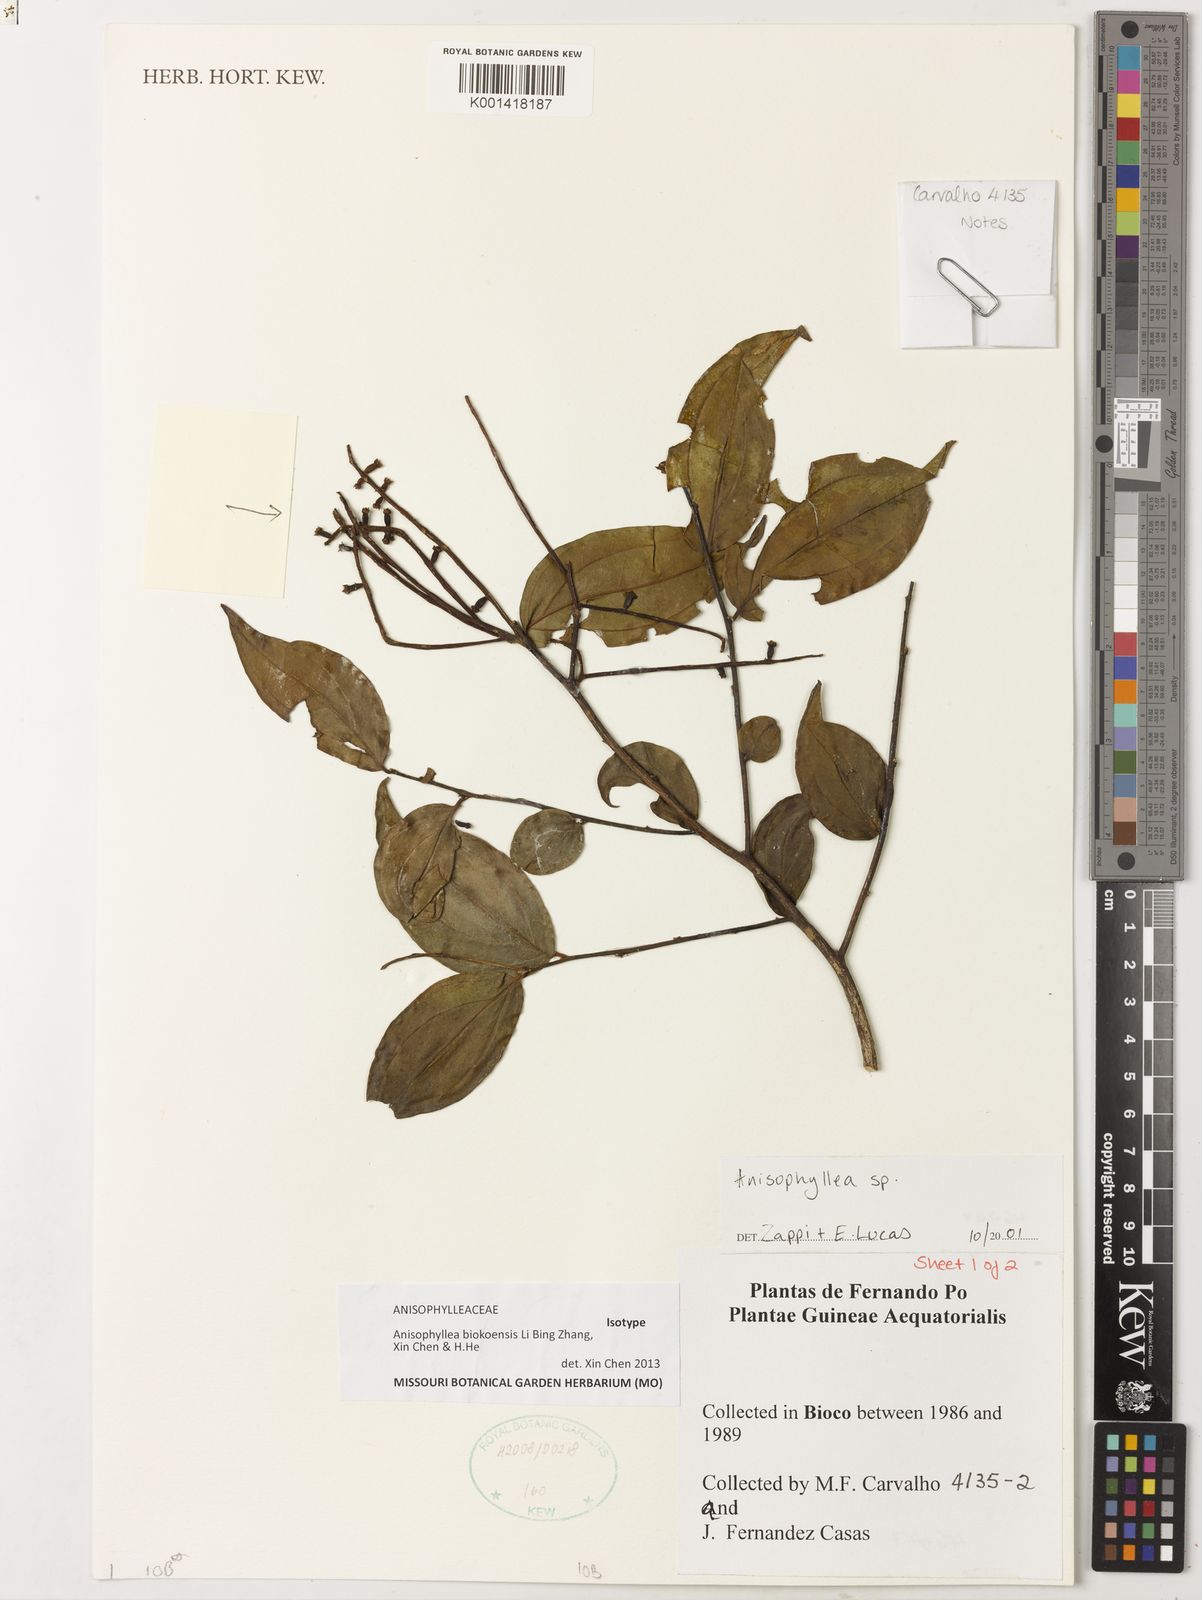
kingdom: Plantae
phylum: Tracheophyta
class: Magnoliopsida
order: Cucurbitales
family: Anisophylleaceae
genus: Anisophyllea
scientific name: Anisophyllea
